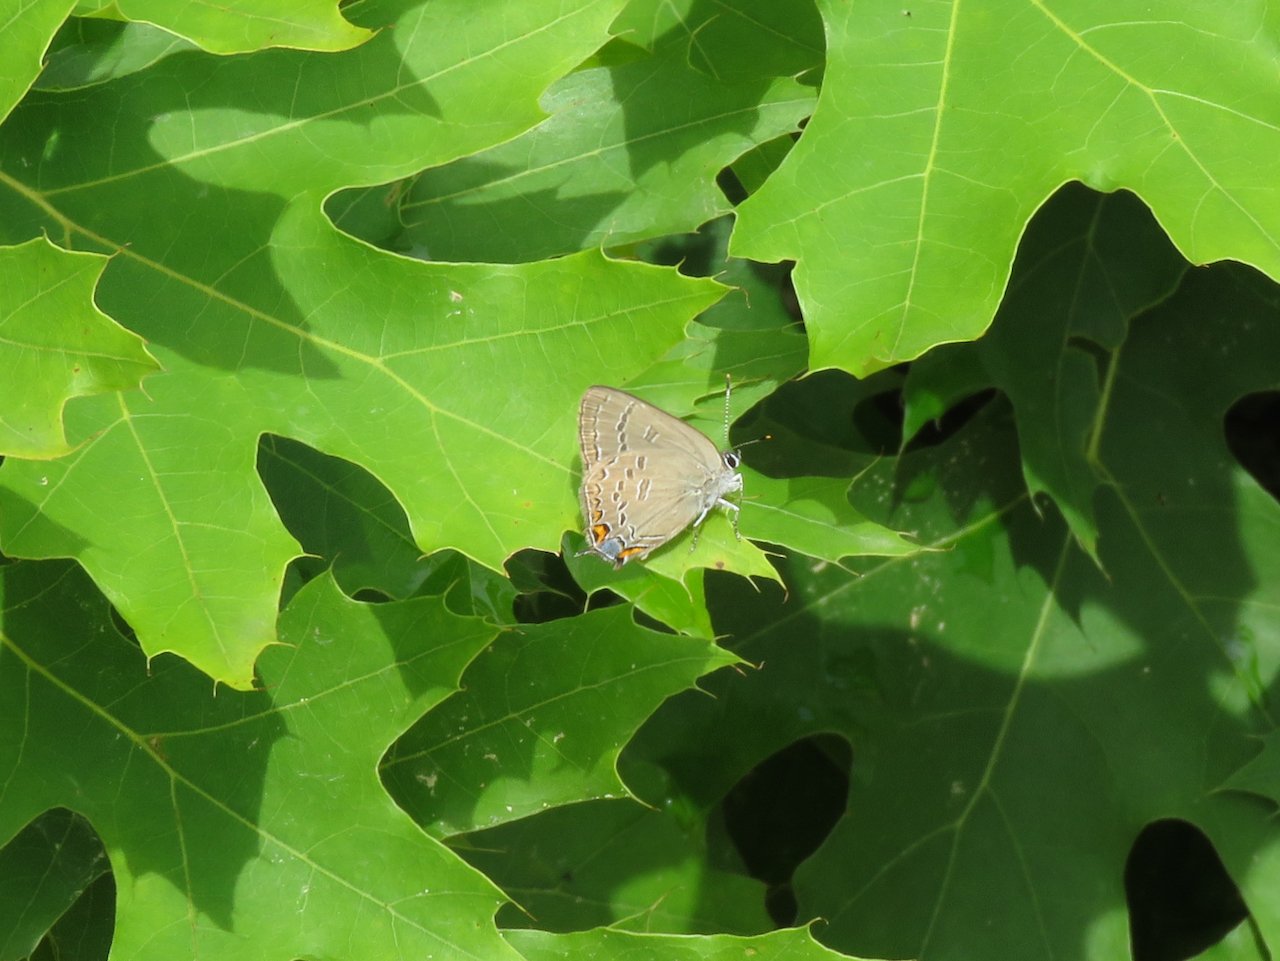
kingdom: Animalia
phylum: Arthropoda
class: Insecta
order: Lepidoptera
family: Lycaenidae
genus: Satyrium
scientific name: Satyrium edwardsii
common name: Edwards' Hairstreak
